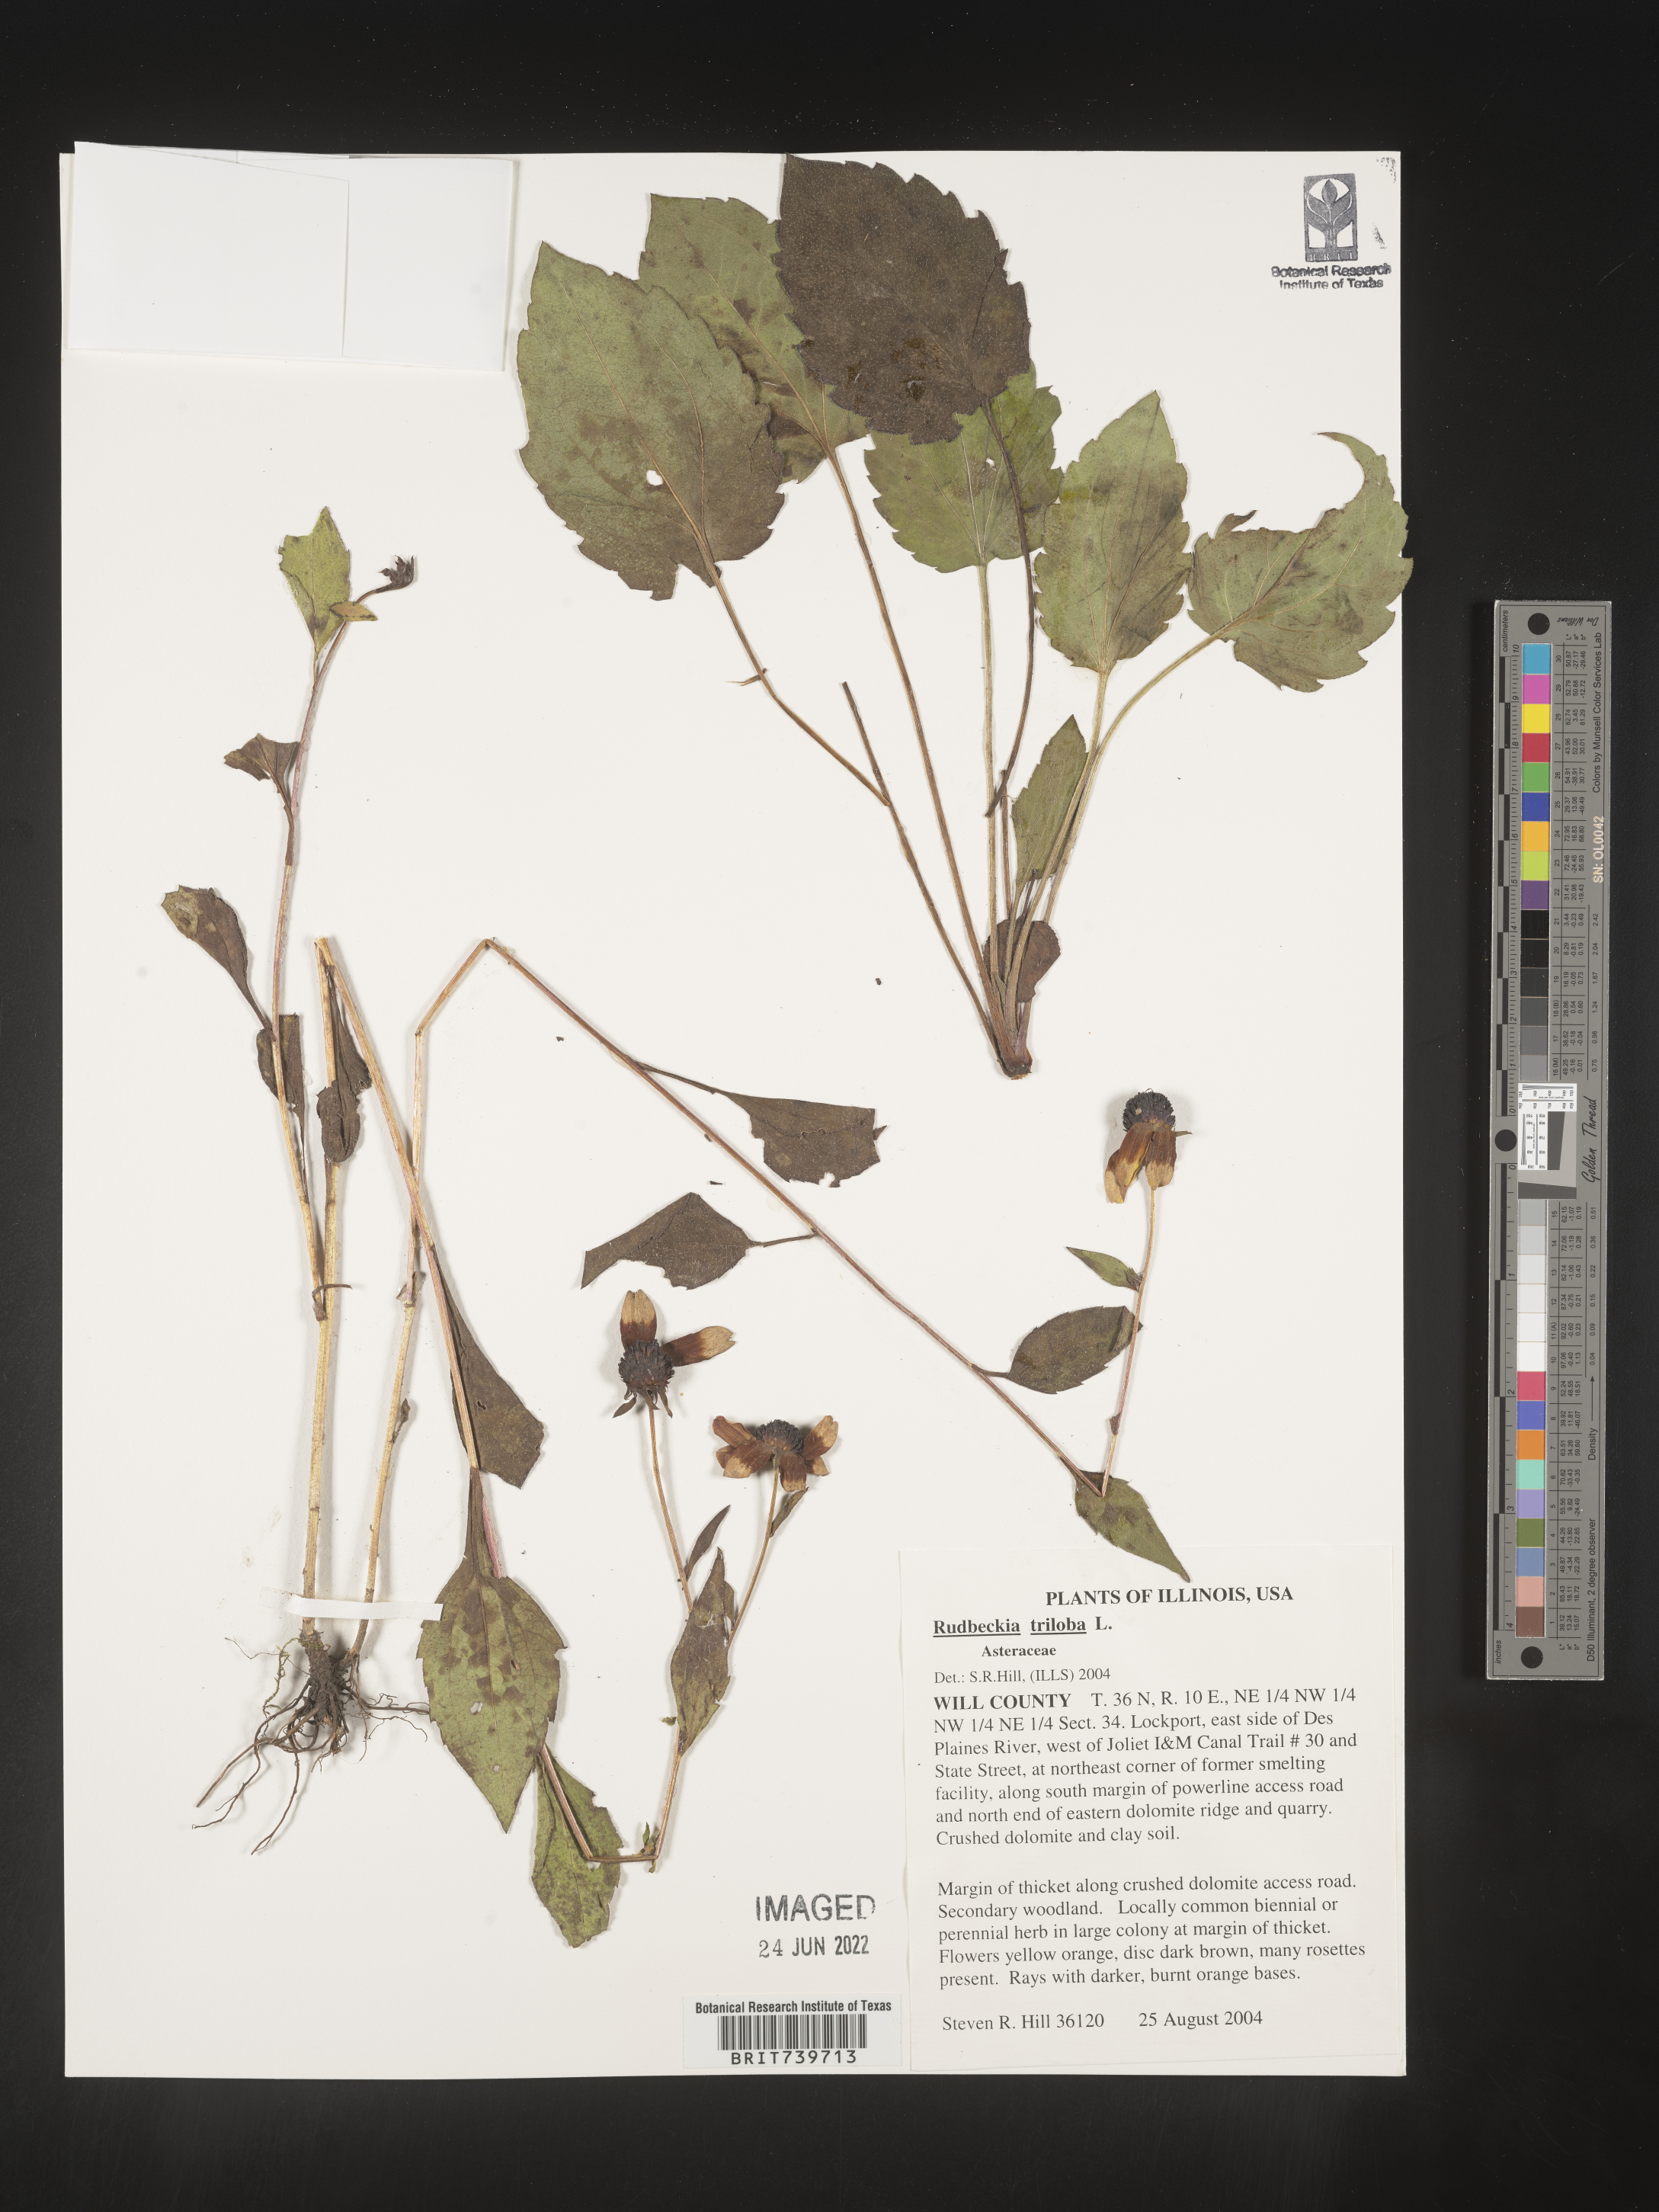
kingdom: Plantae
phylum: Tracheophyta
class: Magnoliopsida
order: Asterales
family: Asteraceae
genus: Rudbeckia
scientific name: Rudbeckia triloba
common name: Thin-leaved coneflower
